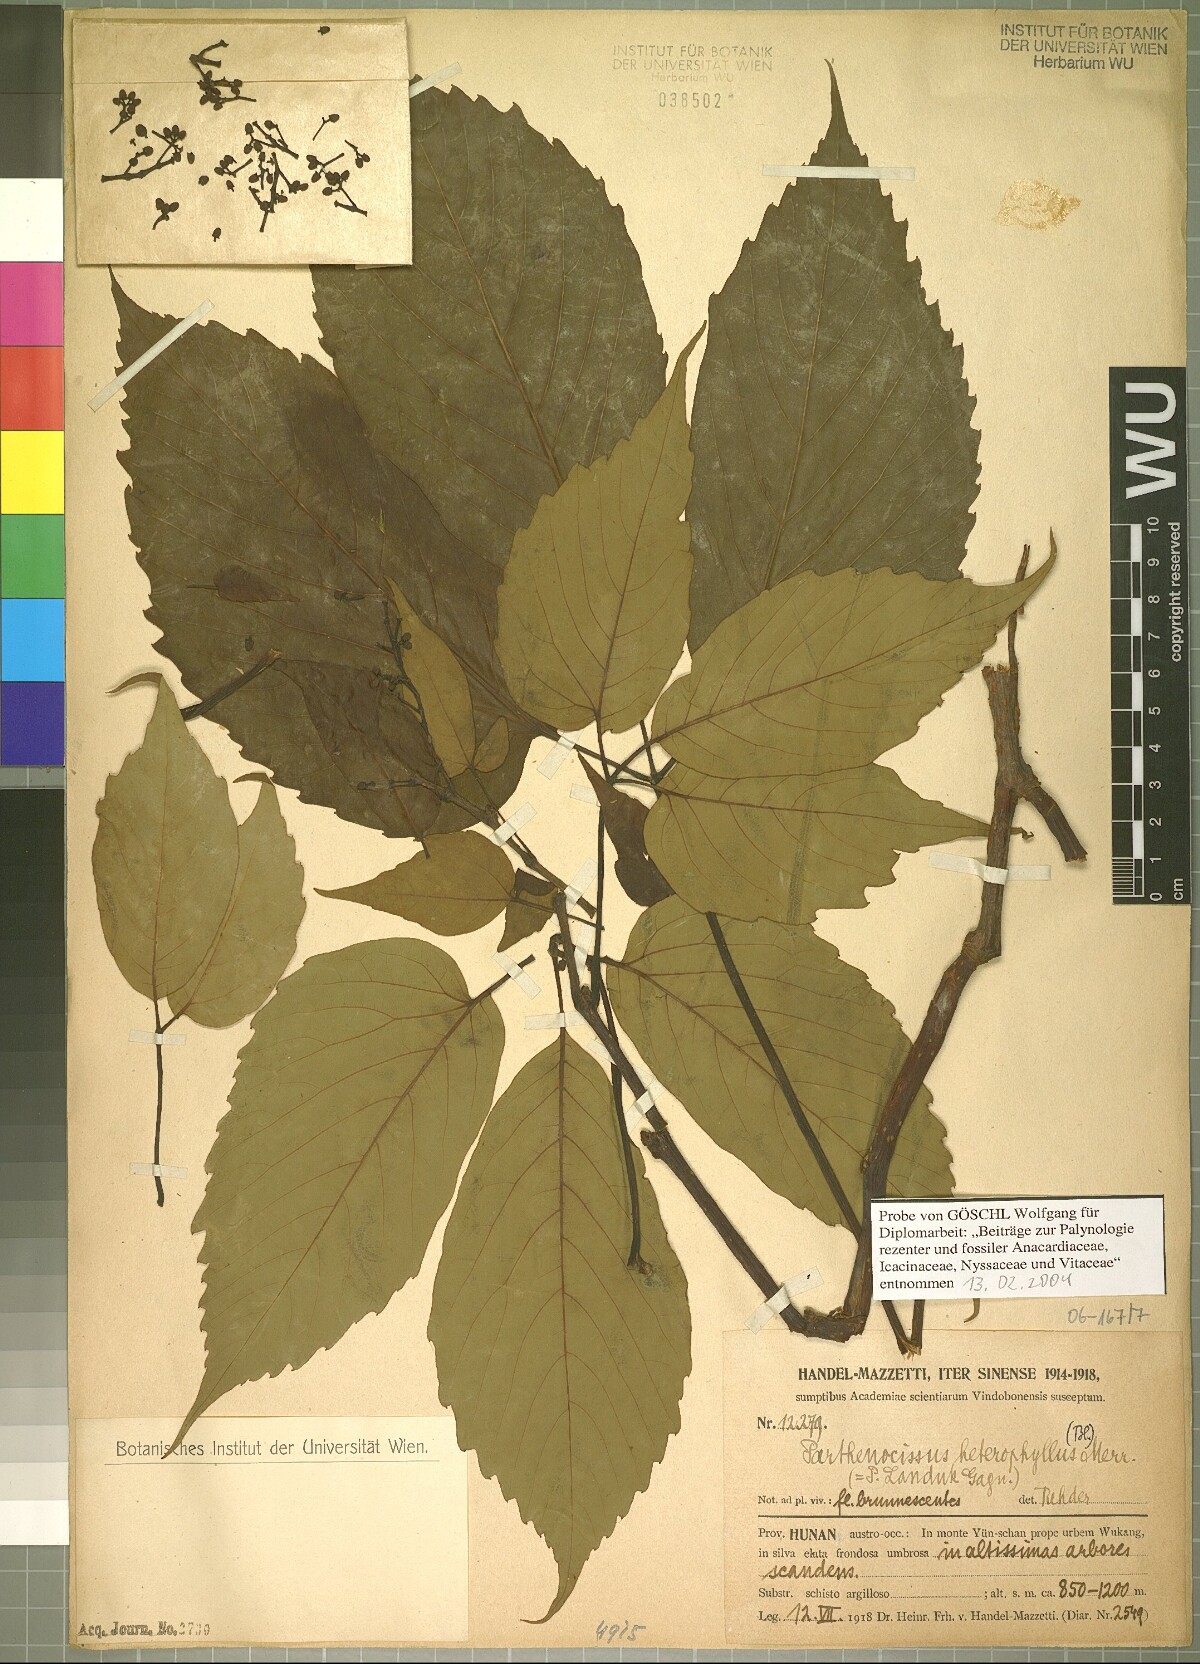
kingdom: Plantae
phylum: Tracheophyta
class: Magnoliopsida
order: Vitales
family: Vitaceae
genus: Parthenocissus
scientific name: Parthenocissus semicordata
